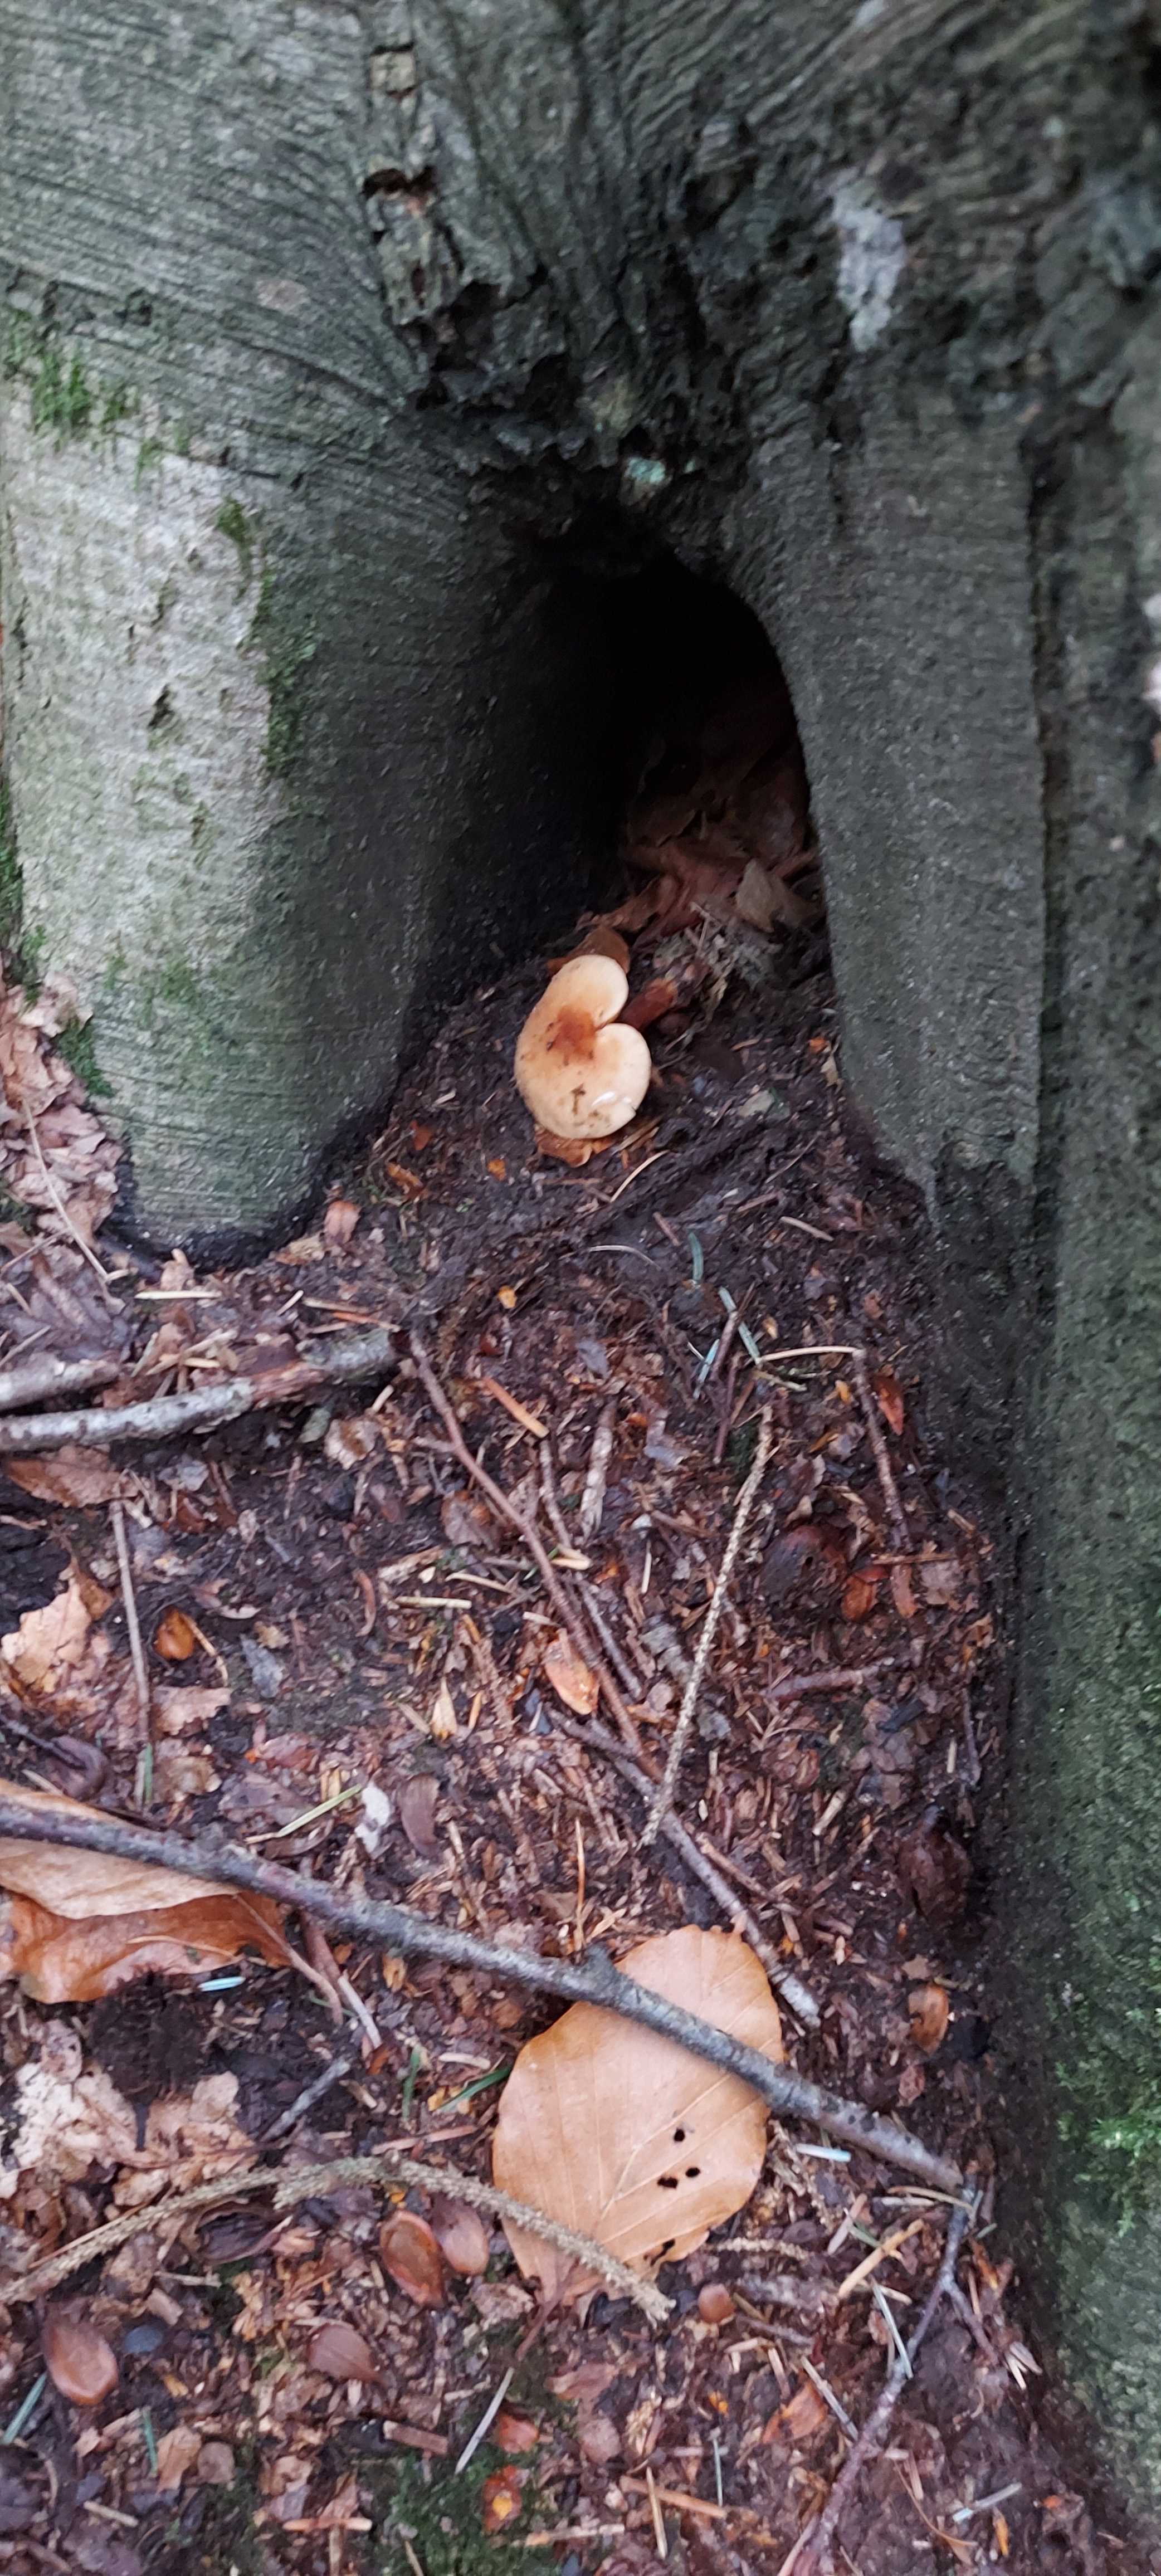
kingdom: Fungi
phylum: Basidiomycota
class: Agaricomycetes
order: Russulales
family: Russulaceae
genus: Lactarius
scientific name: Lactarius camphoratus
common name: kamfer-mælkehat
